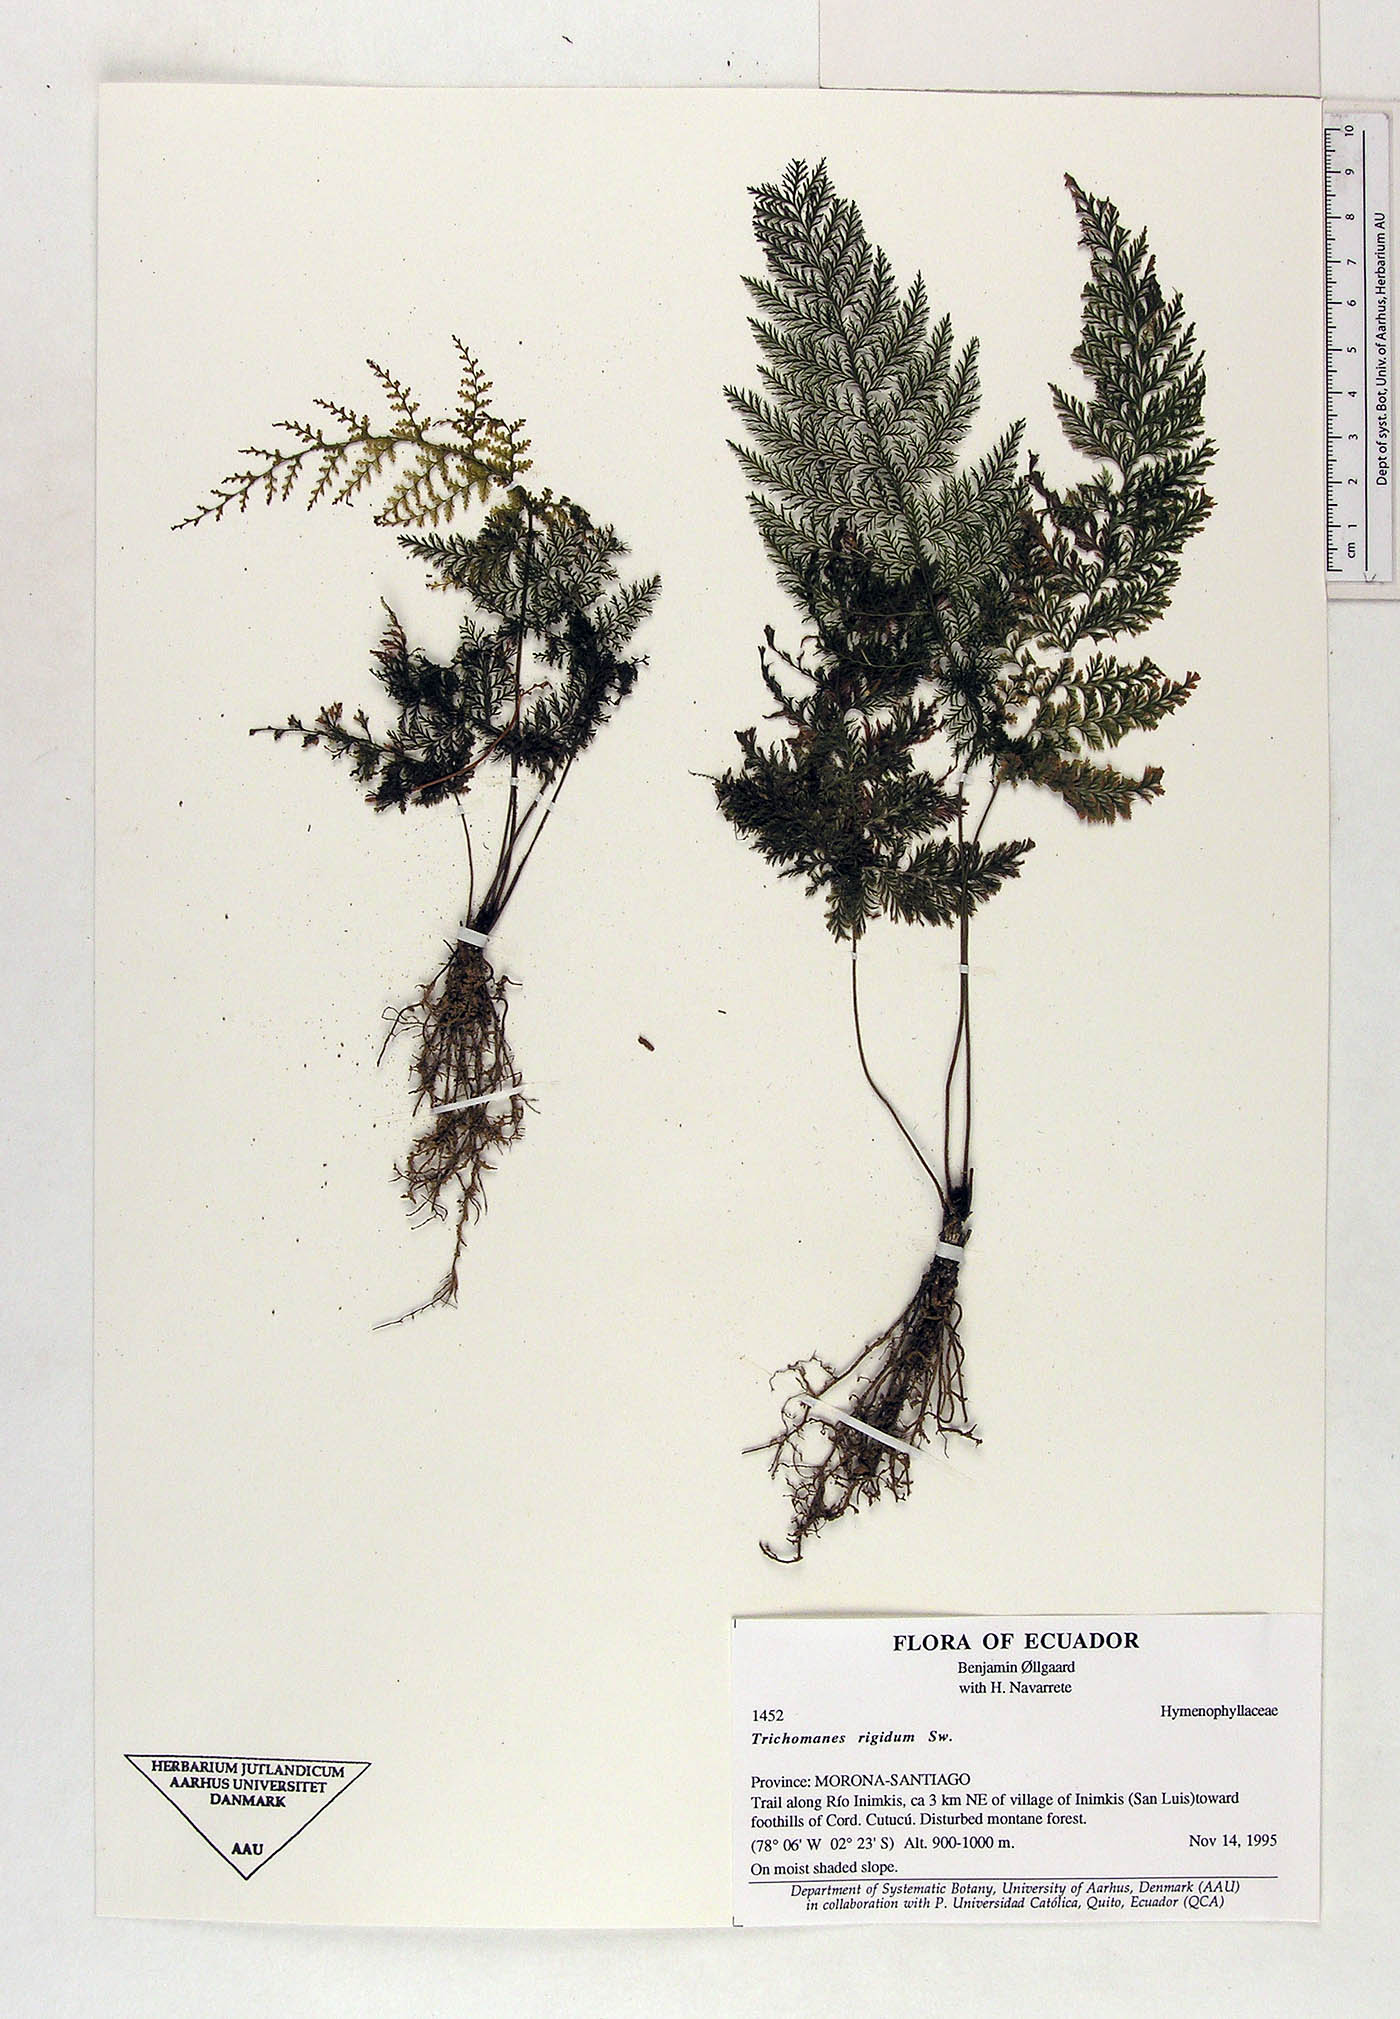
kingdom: Plantae
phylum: Tracheophyta
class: Polypodiopsida
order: Hymenophyllales
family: Hymenophyllaceae
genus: Abrodictyum
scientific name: Abrodictyum rigidum
